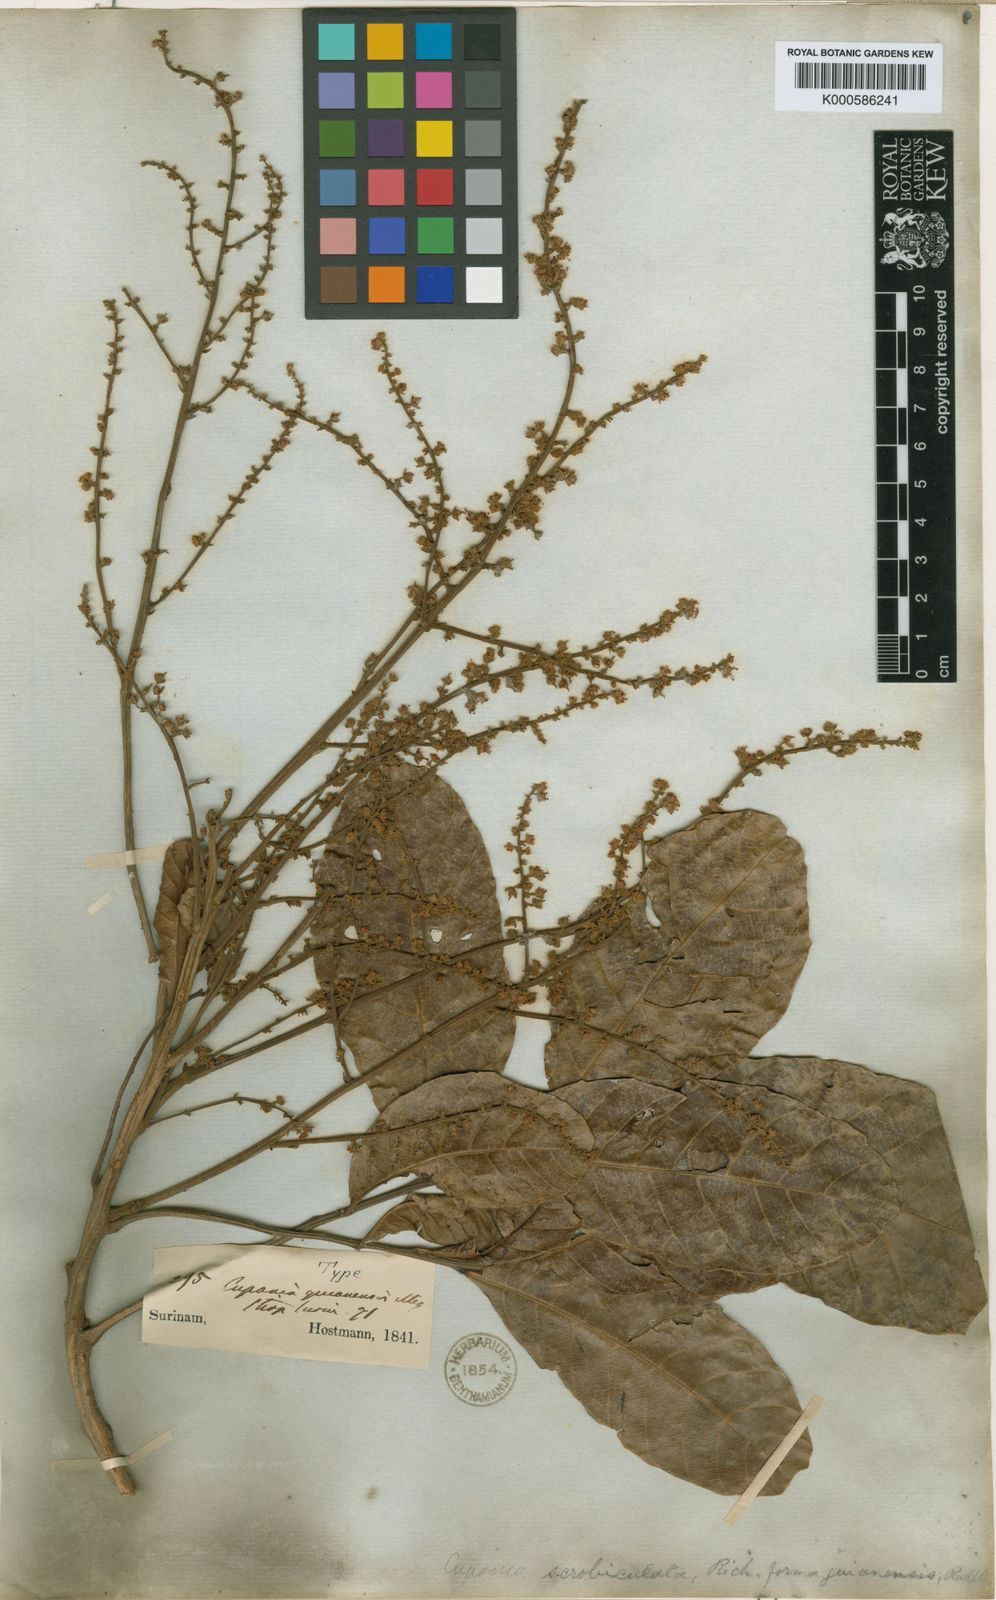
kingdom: Plantae
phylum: Tracheophyta
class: Magnoliopsida
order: Sapindales
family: Sapindaceae
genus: Cupania
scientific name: Cupania scrobiculata
